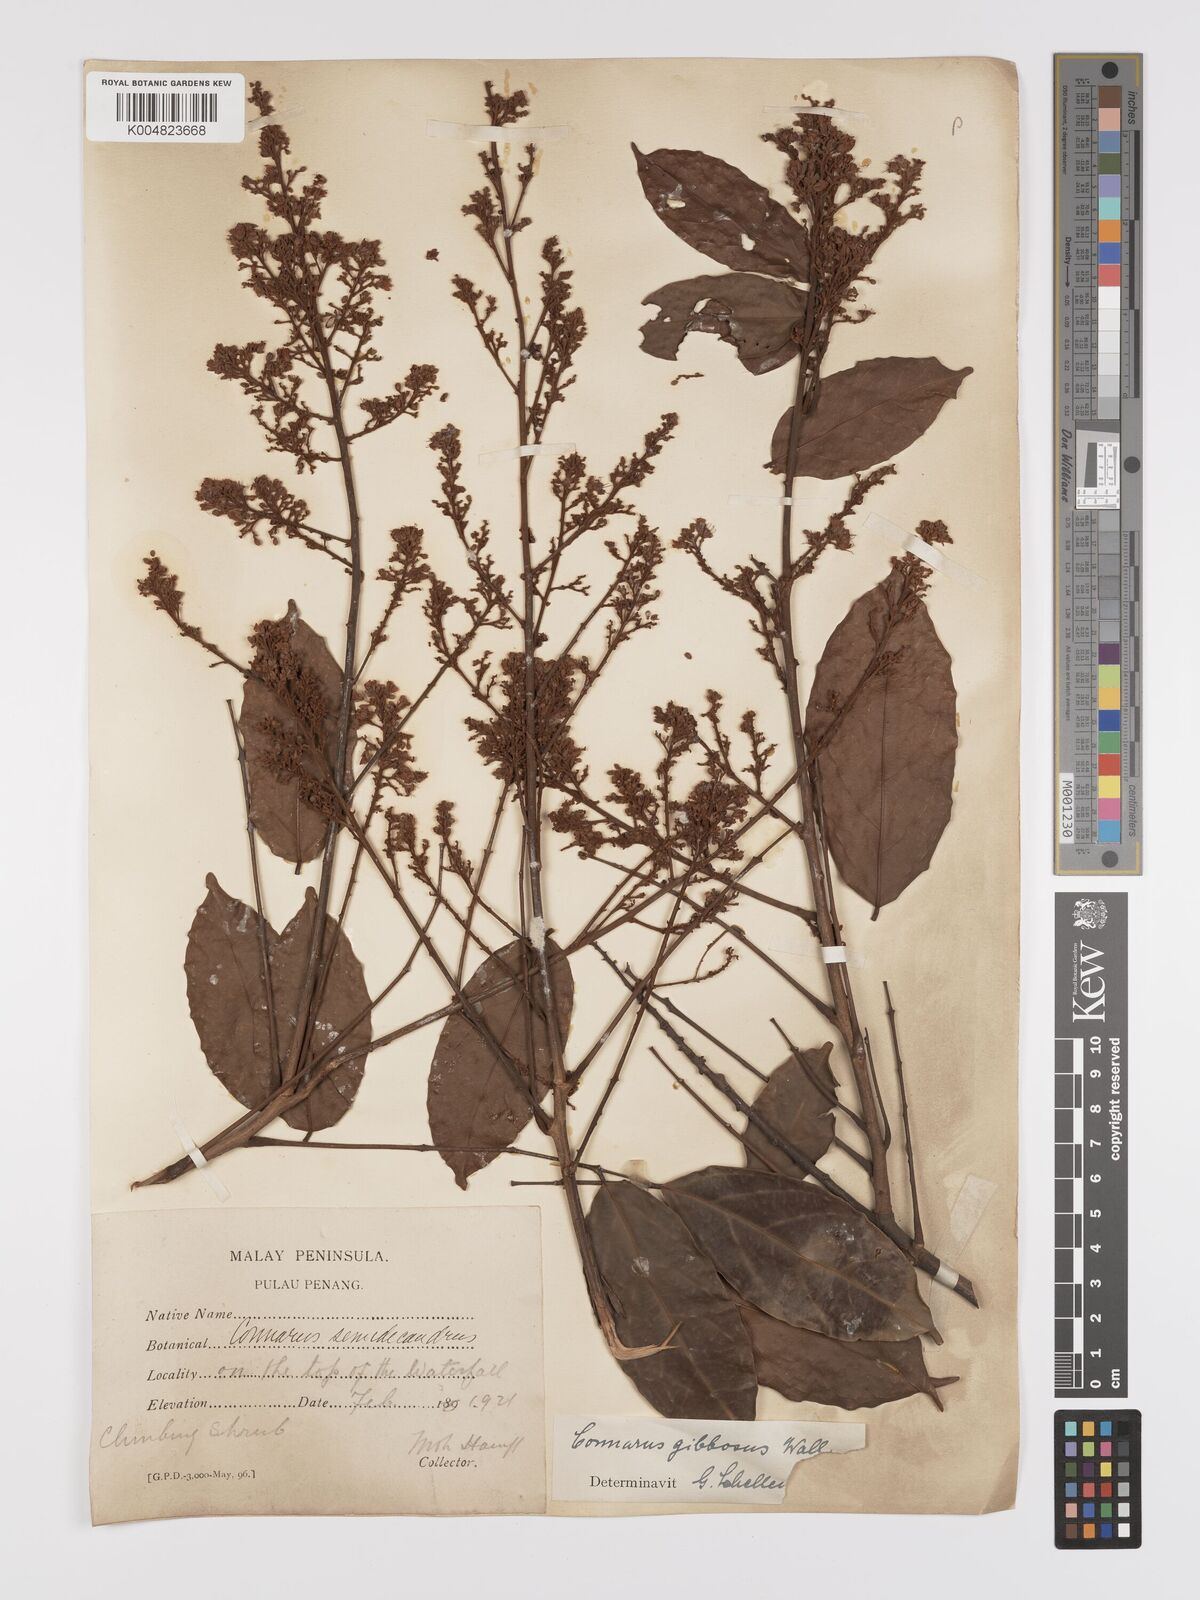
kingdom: Plantae
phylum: Tracheophyta
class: Magnoliopsida
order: Oxalidales
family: Connaraceae
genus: Connarus
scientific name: Connarus semidecandrus
